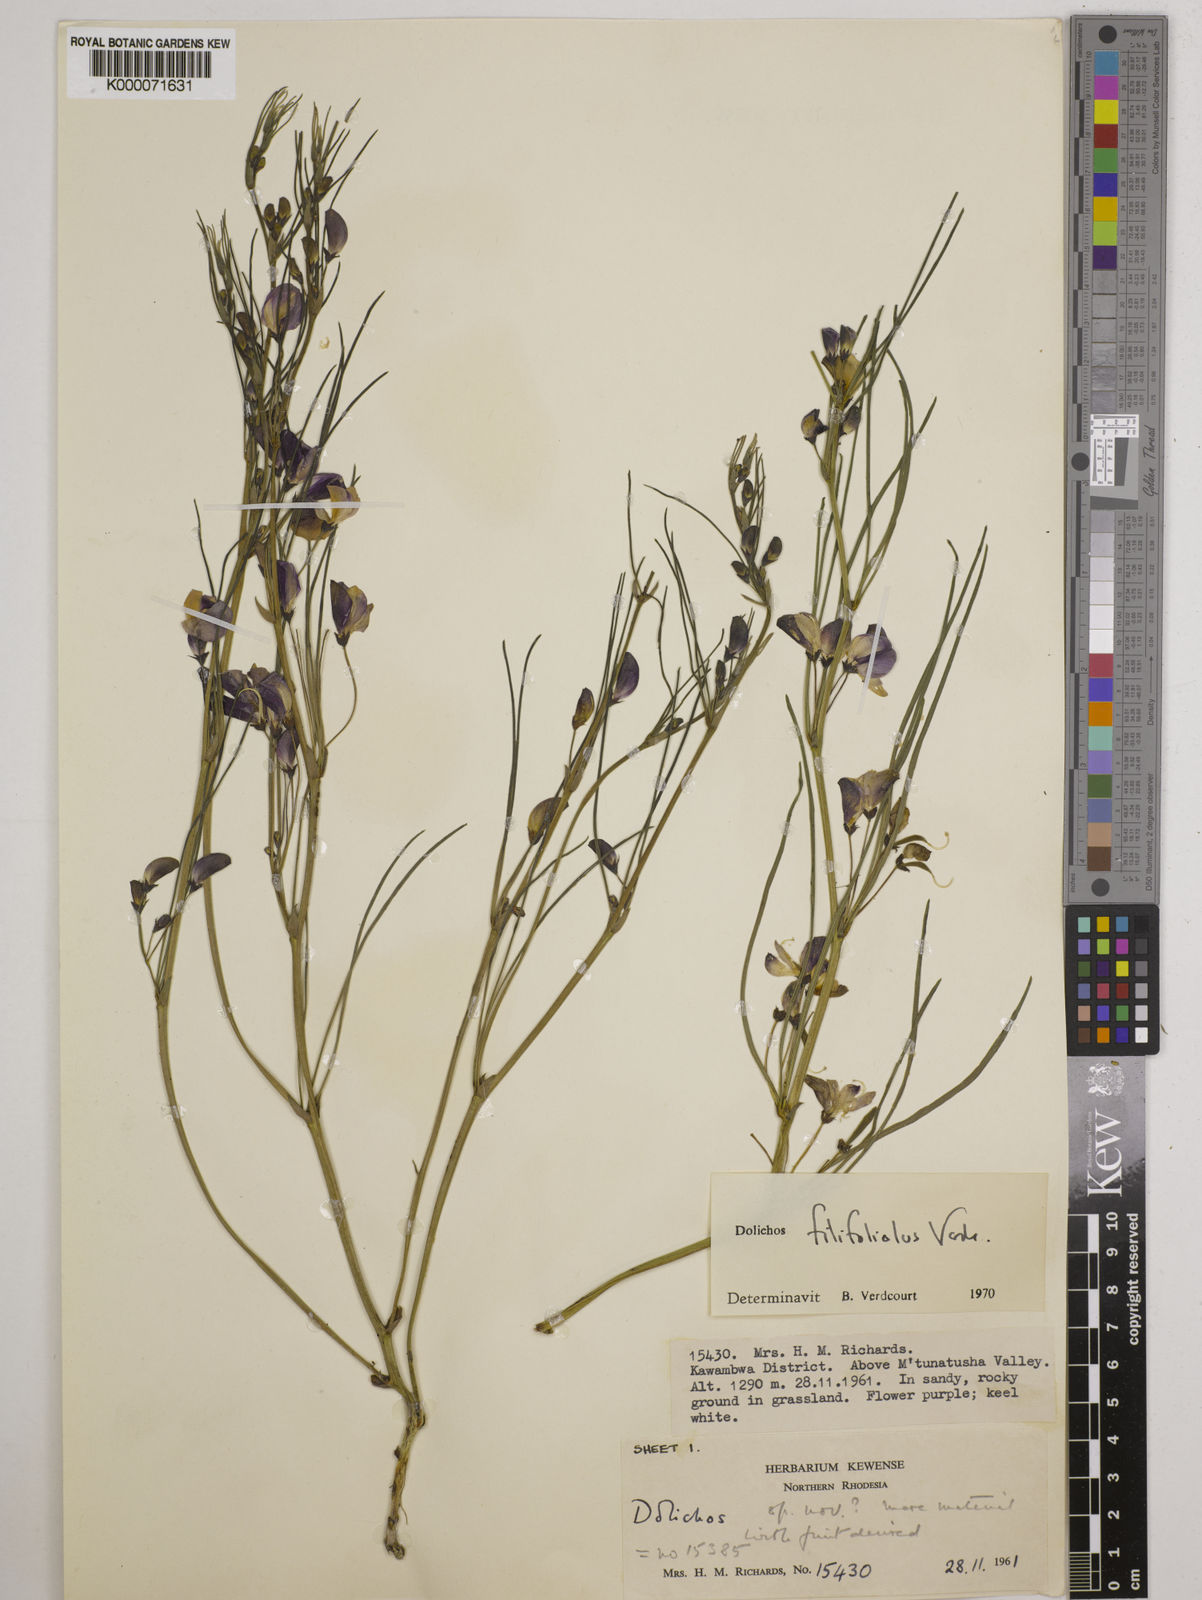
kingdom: Plantae
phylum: Tracheophyta
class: Magnoliopsida
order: Fabales
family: Fabaceae
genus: Dolichos
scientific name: Dolichos filifoliolus
